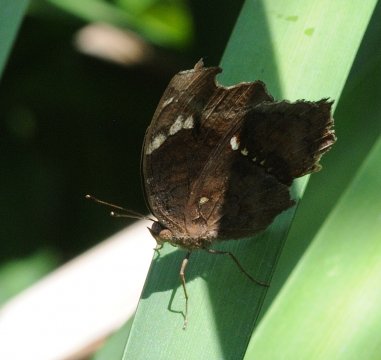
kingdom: Animalia
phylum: Arthropoda
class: Insecta
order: Lepidoptera
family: Nymphalidae
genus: Junonia
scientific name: Junonia natalica
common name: Natal Pansy
